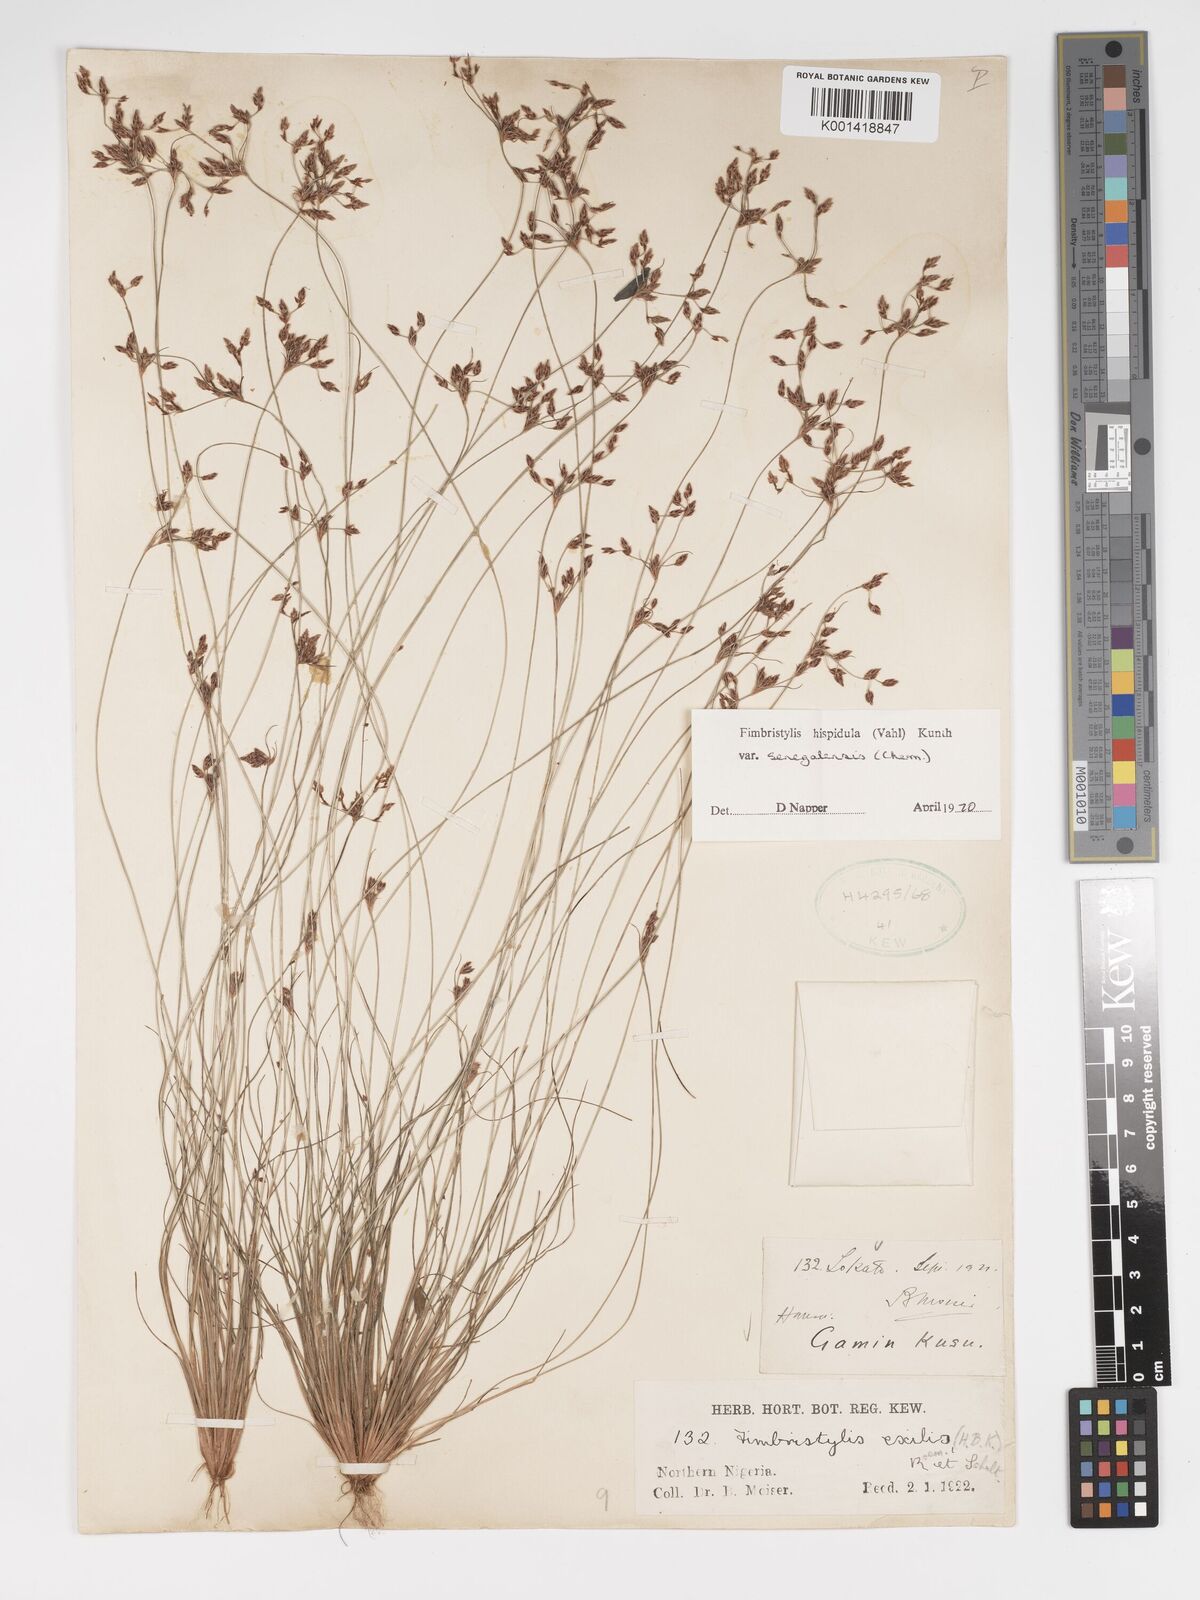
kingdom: Plantae
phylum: Tracheophyta
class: Liliopsida
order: Poales
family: Cyperaceae
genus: Bulbostylis
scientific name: Bulbostylis hispidula
